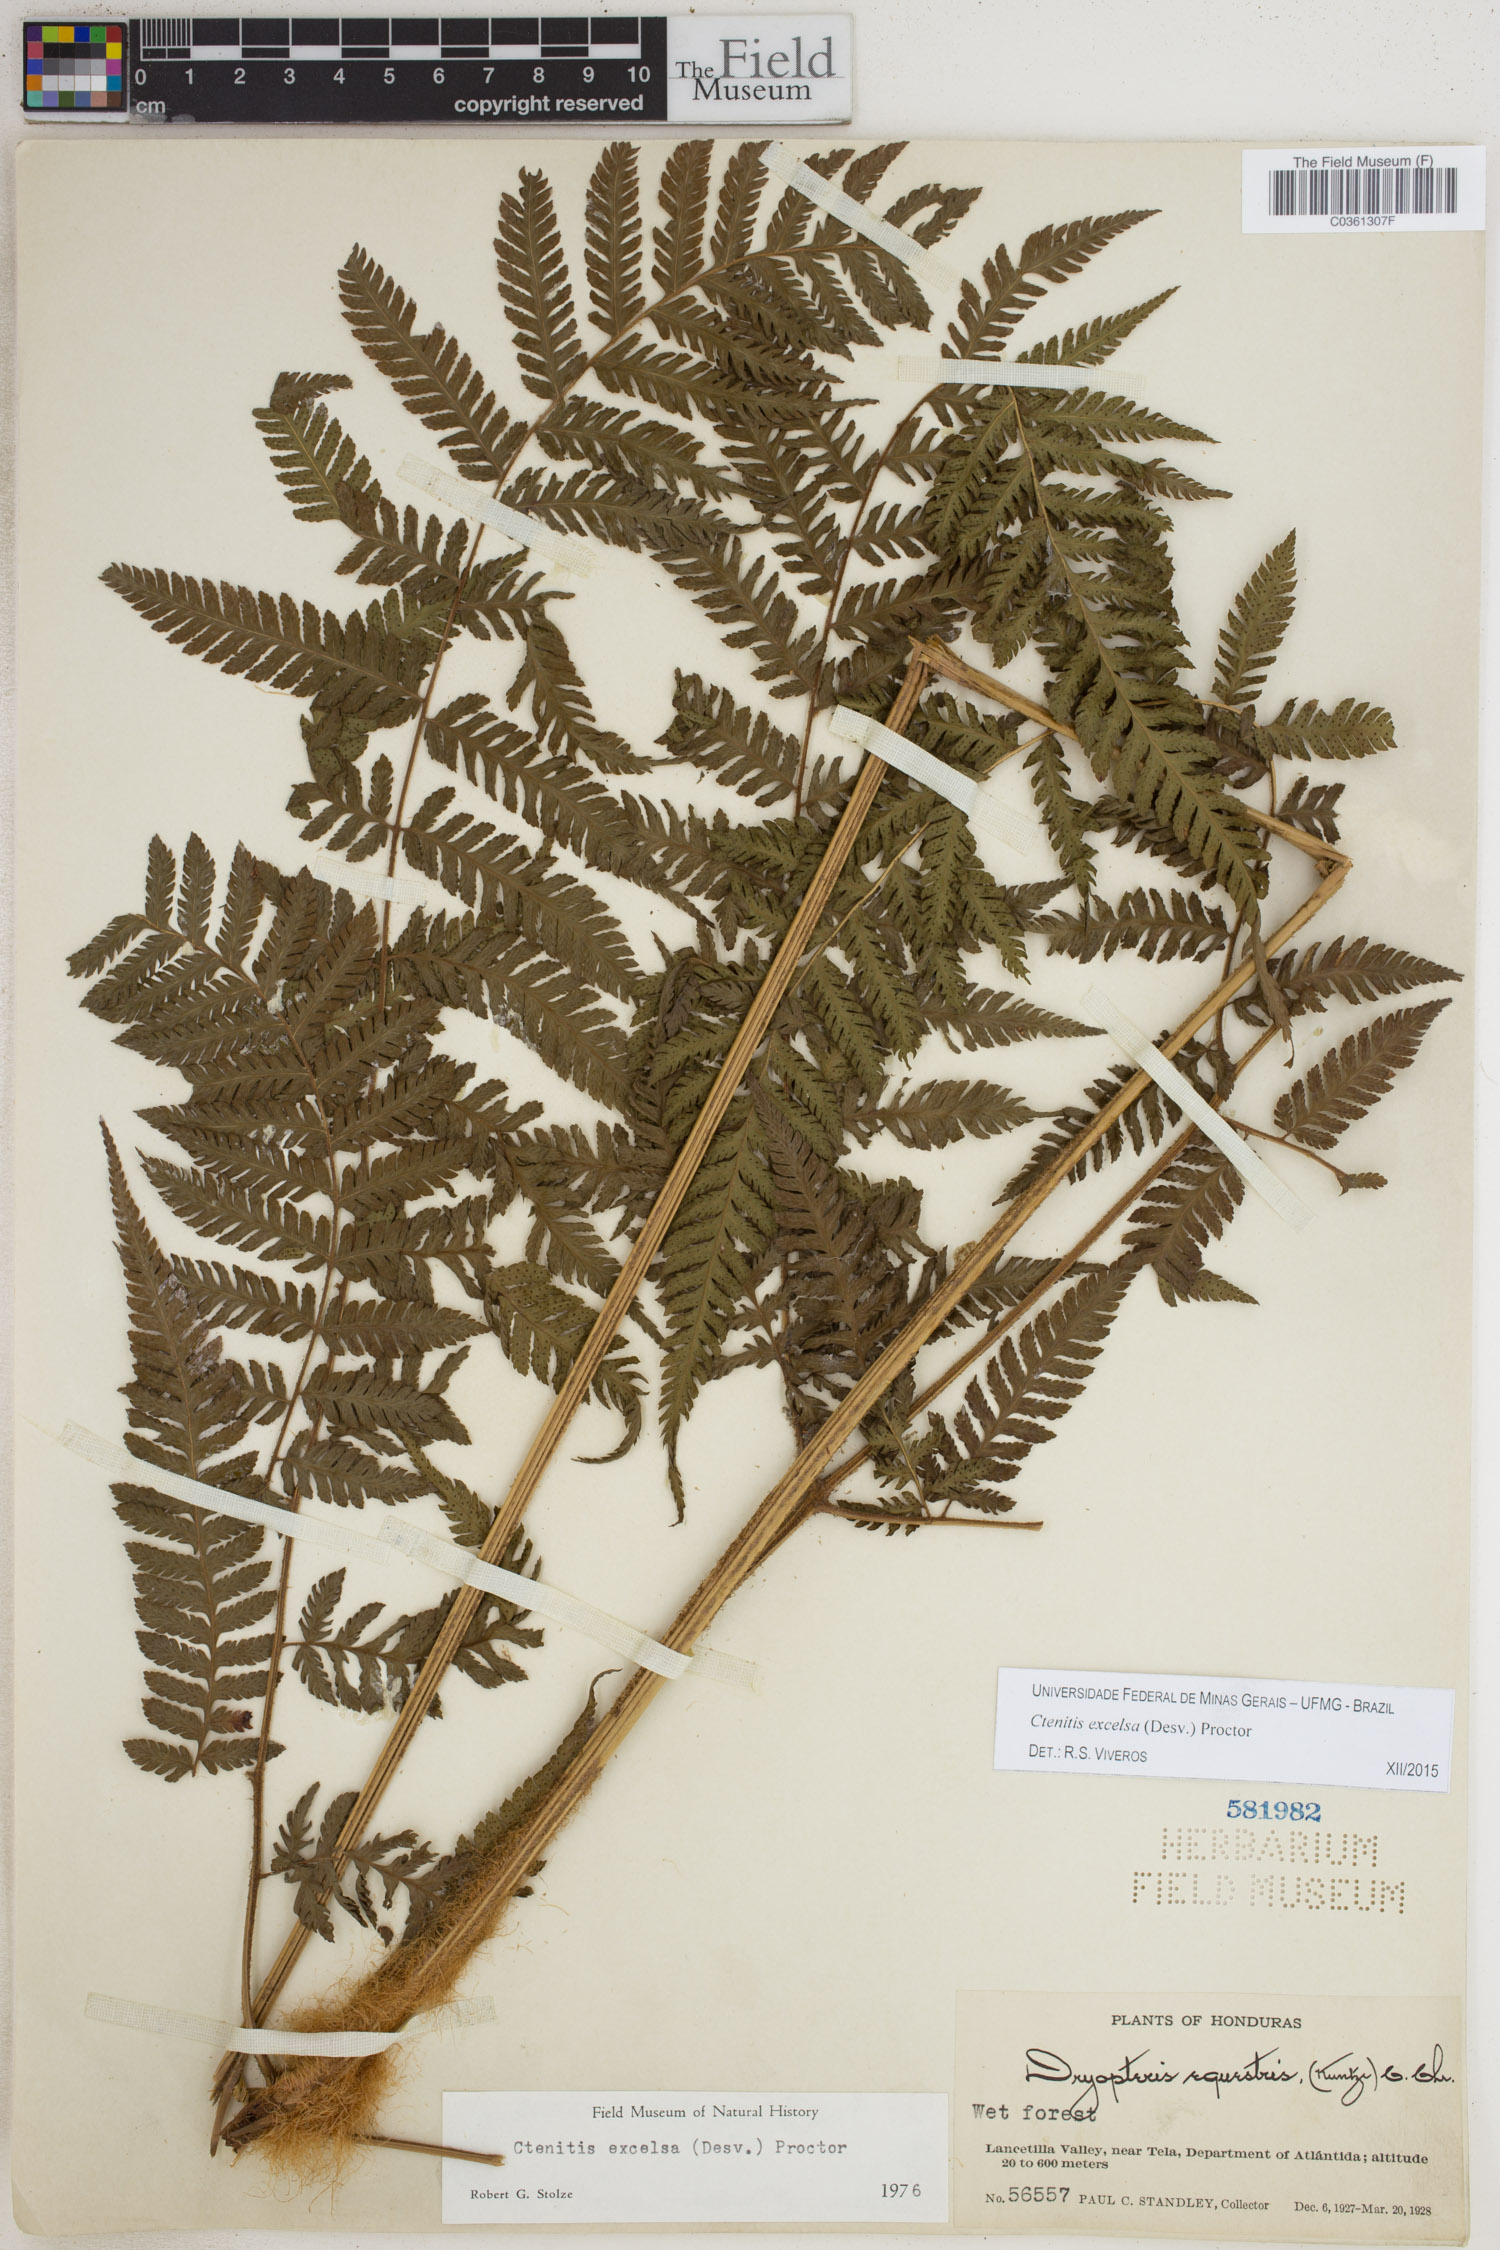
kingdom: Plantae
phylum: Tracheophyta
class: Polypodiopsida
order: Polypodiales
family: Dryopteridaceae
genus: Ctenitis
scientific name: Ctenitis excelsa
